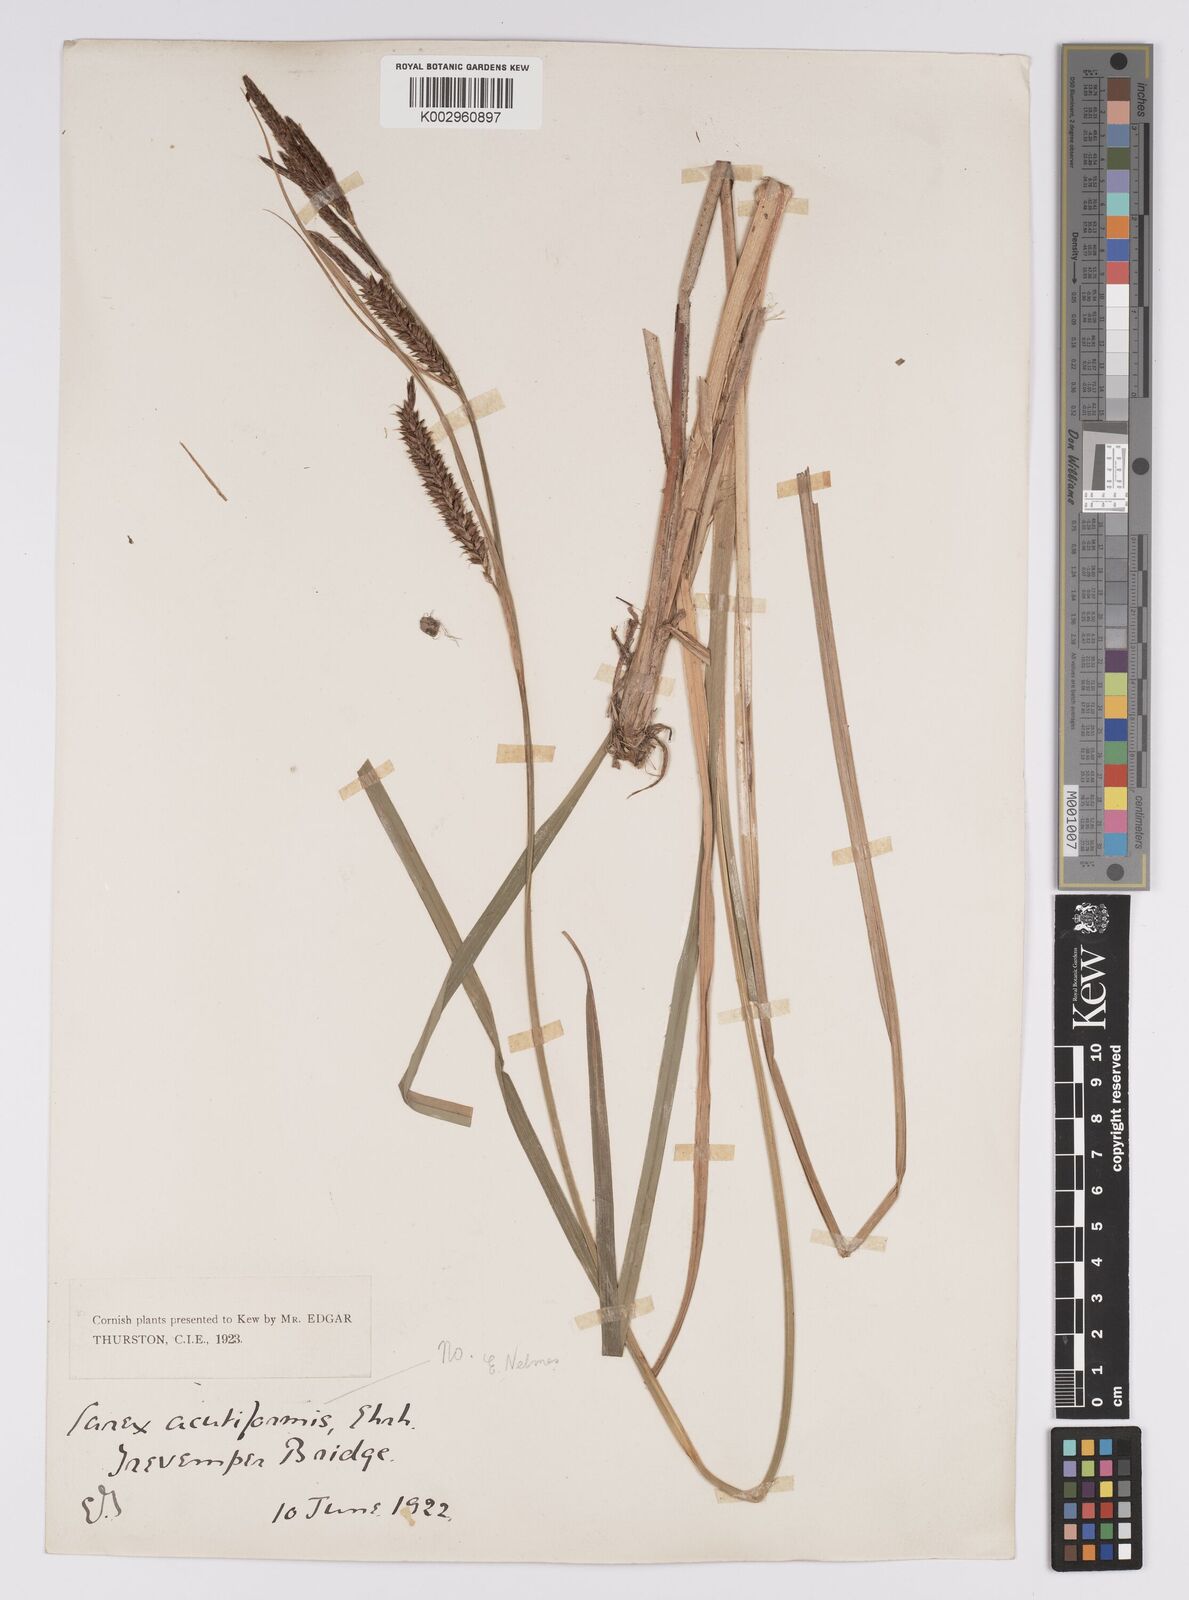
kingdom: Plantae
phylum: Tracheophyta
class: Liliopsida
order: Poales
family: Cyperaceae
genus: Carex
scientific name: Carex riparia
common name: Greater pond-sedge
